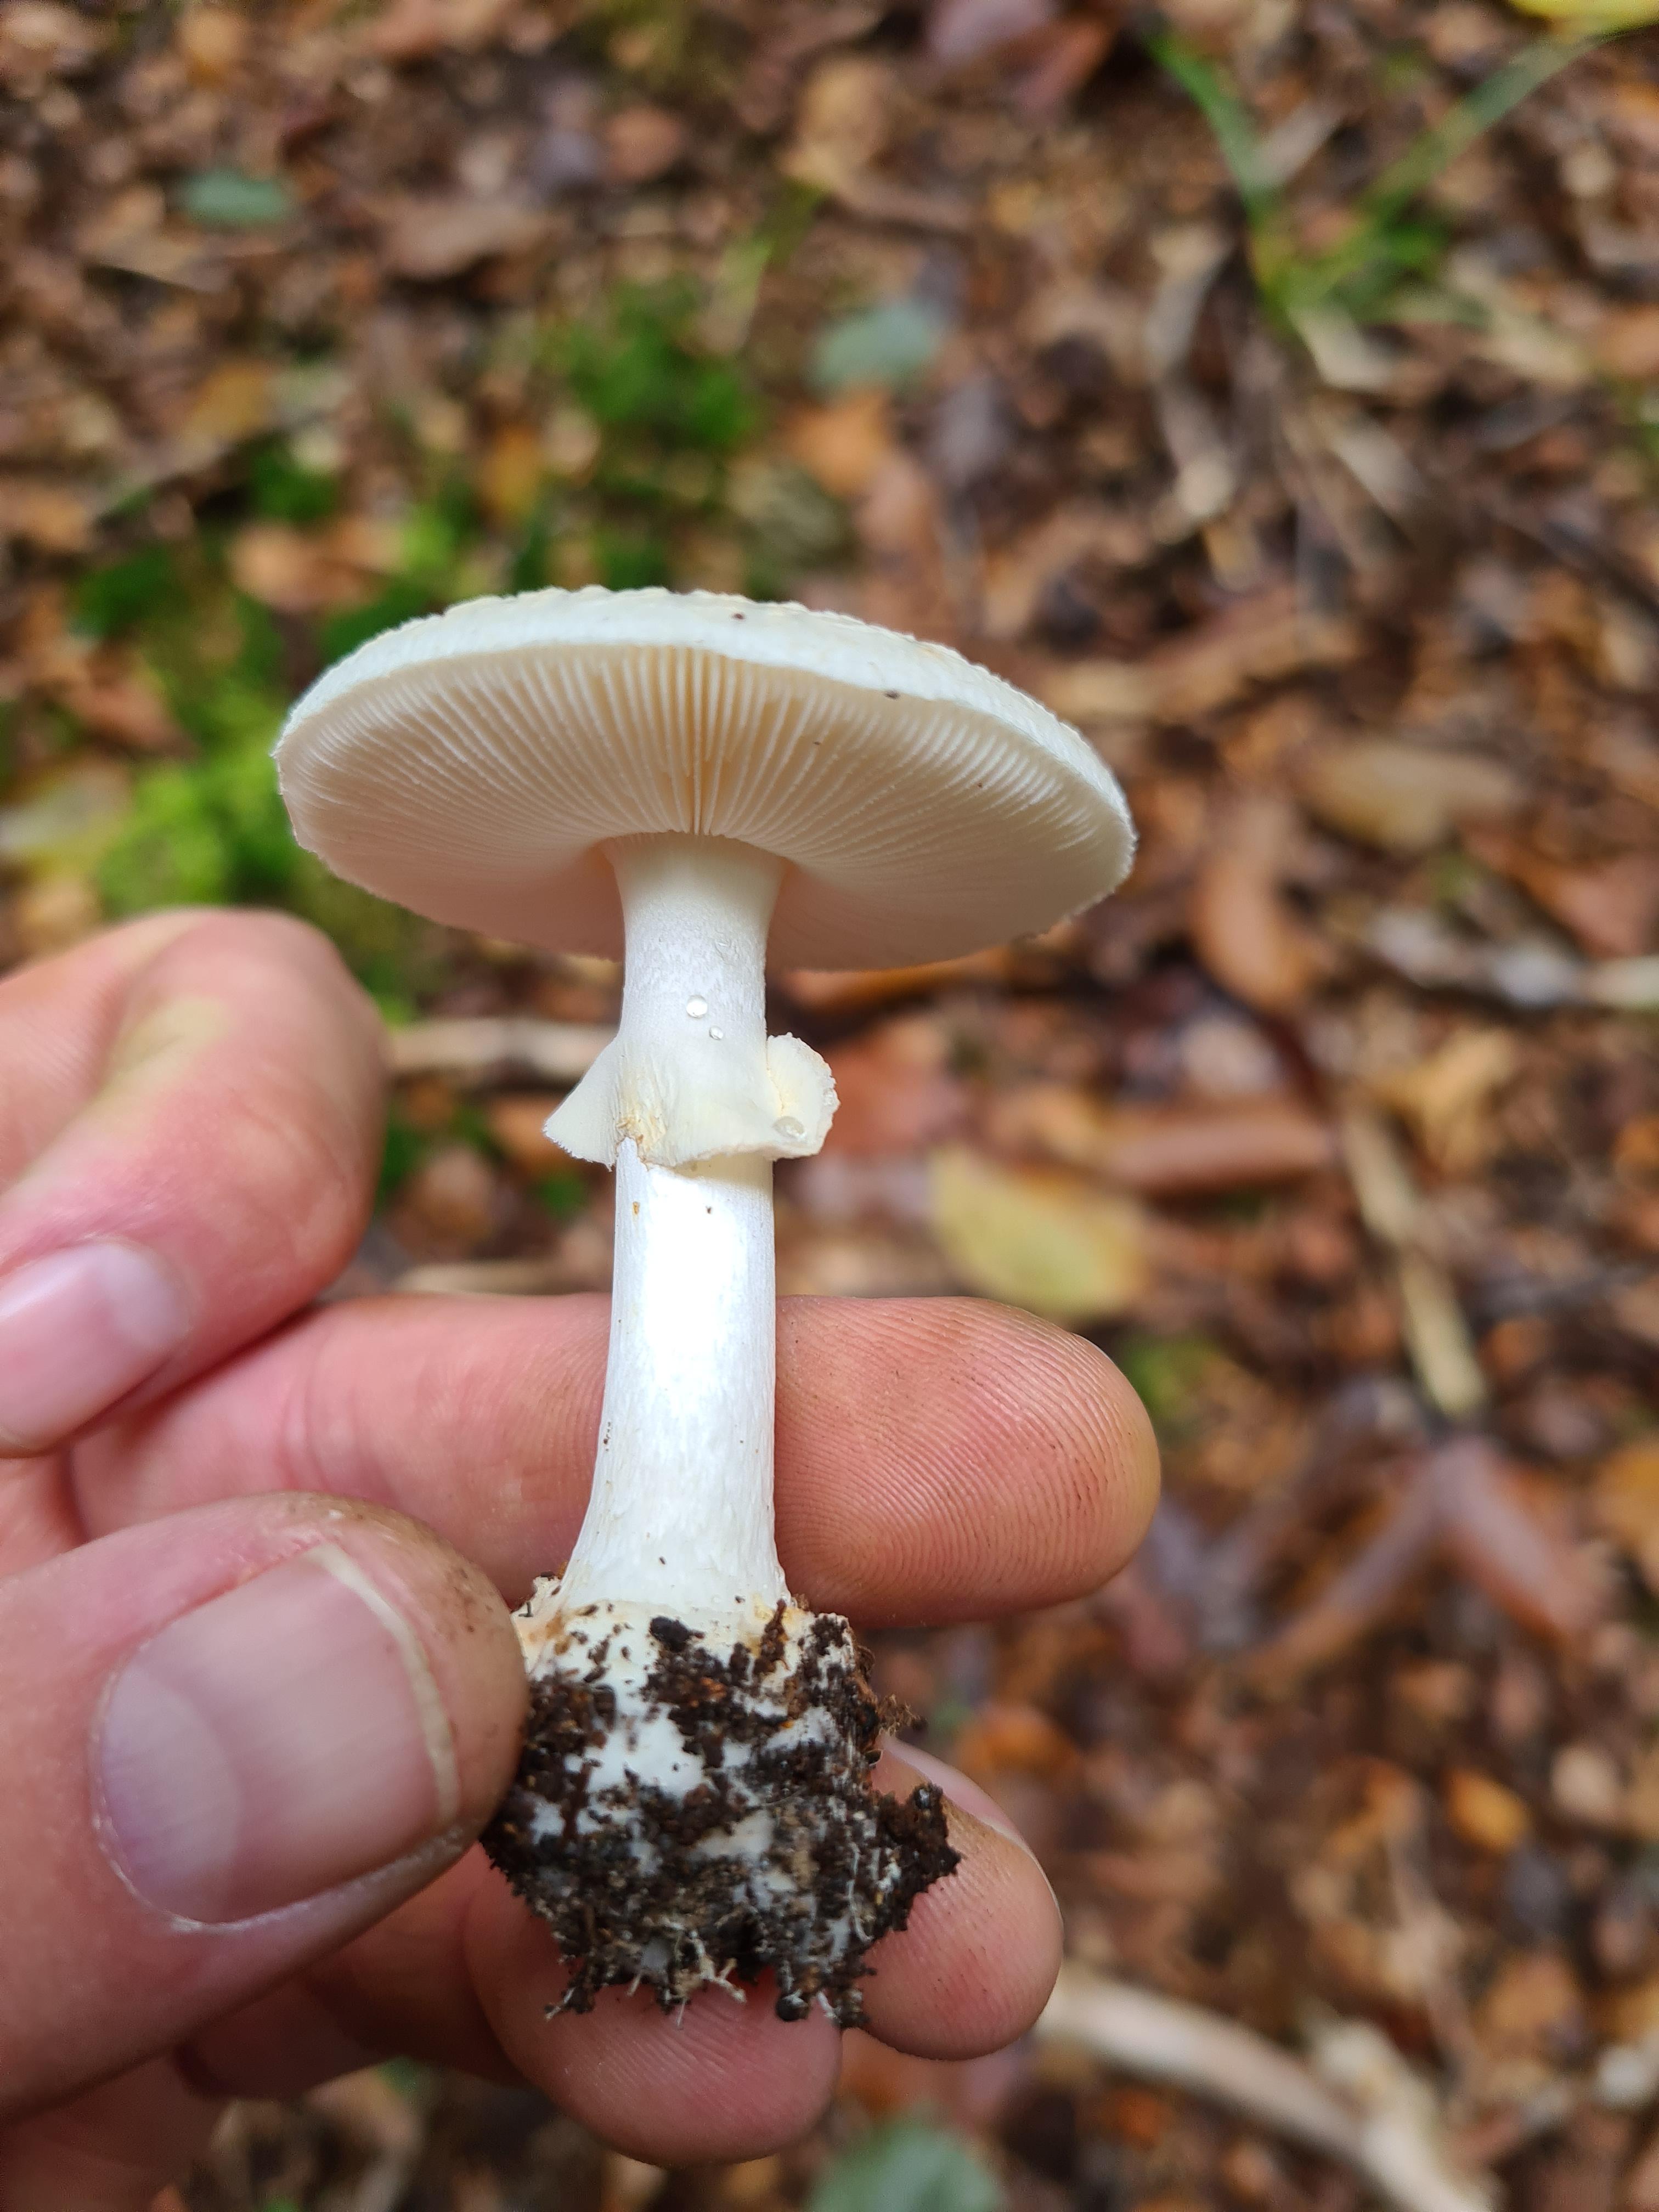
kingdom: Fungi
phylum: Basidiomycota
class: Agaricomycetes
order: Agaricales
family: Amanitaceae
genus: Amanita
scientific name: Amanita citrina
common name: kugleknoldet fluesvamp
